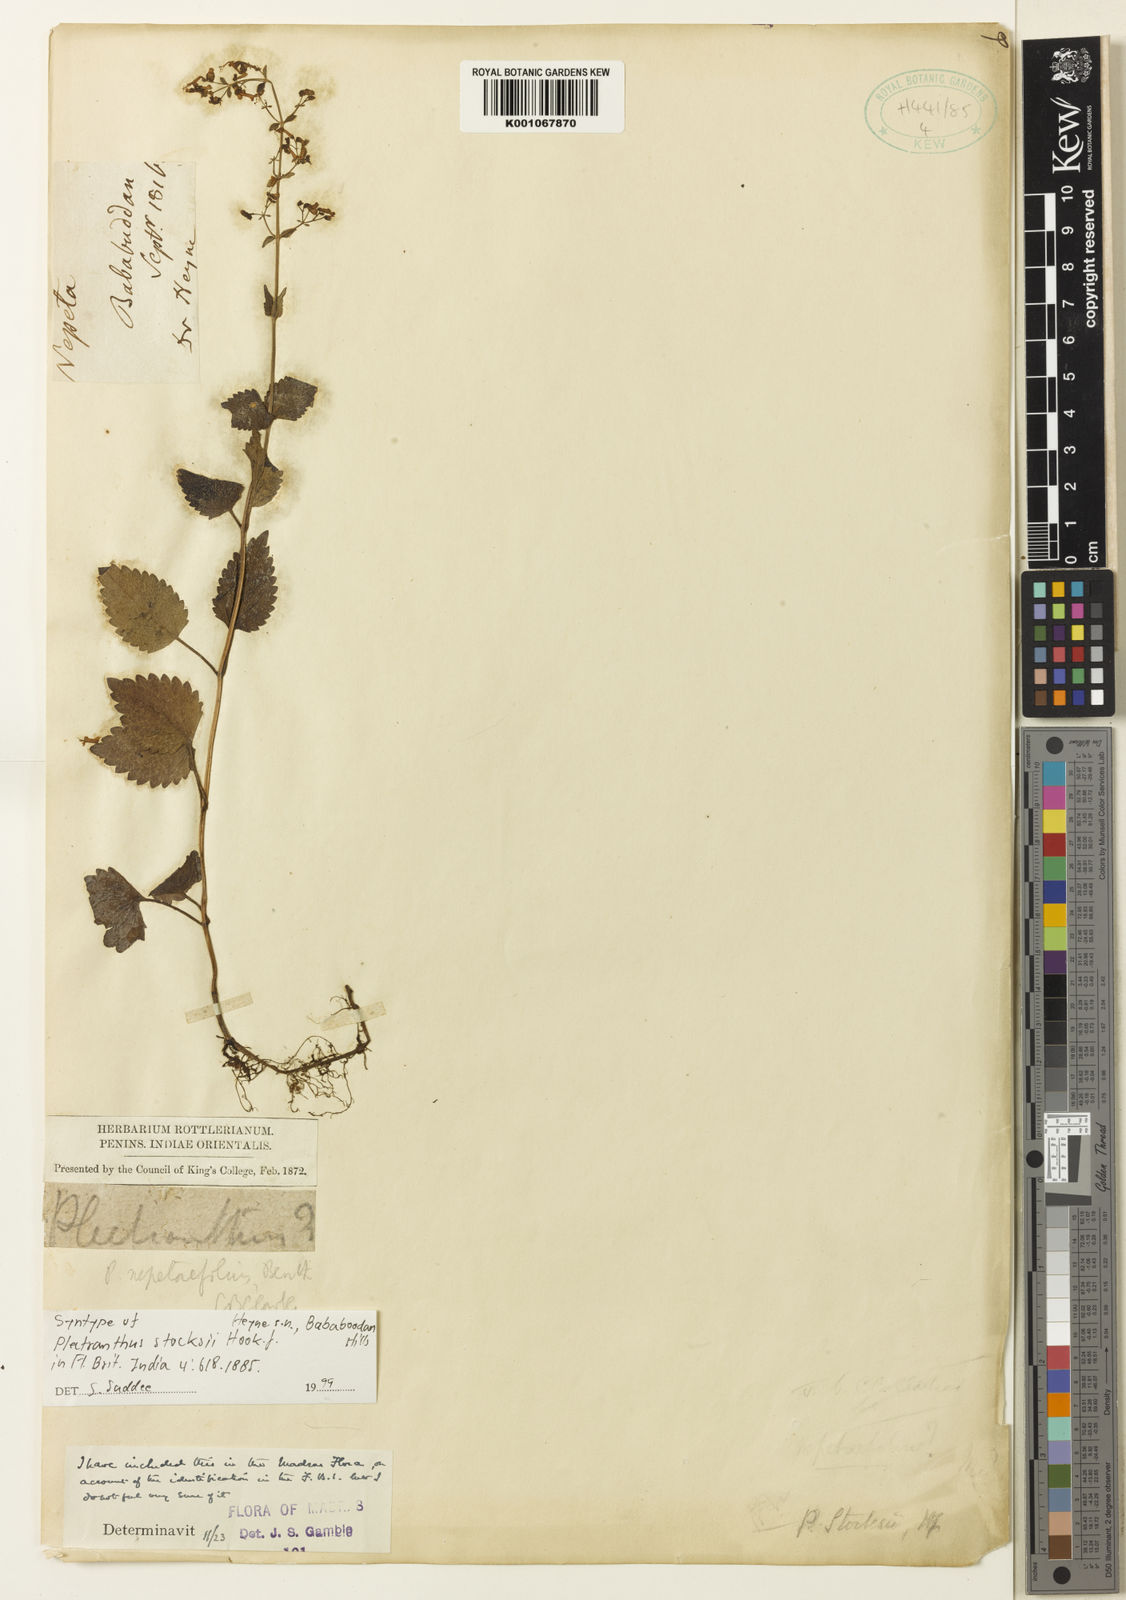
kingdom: Plantae
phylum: Tracheophyta
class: Magnoliopsida
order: Lamiales
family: Lamiaceae
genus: Isodon
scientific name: Isodon lophanthoides
